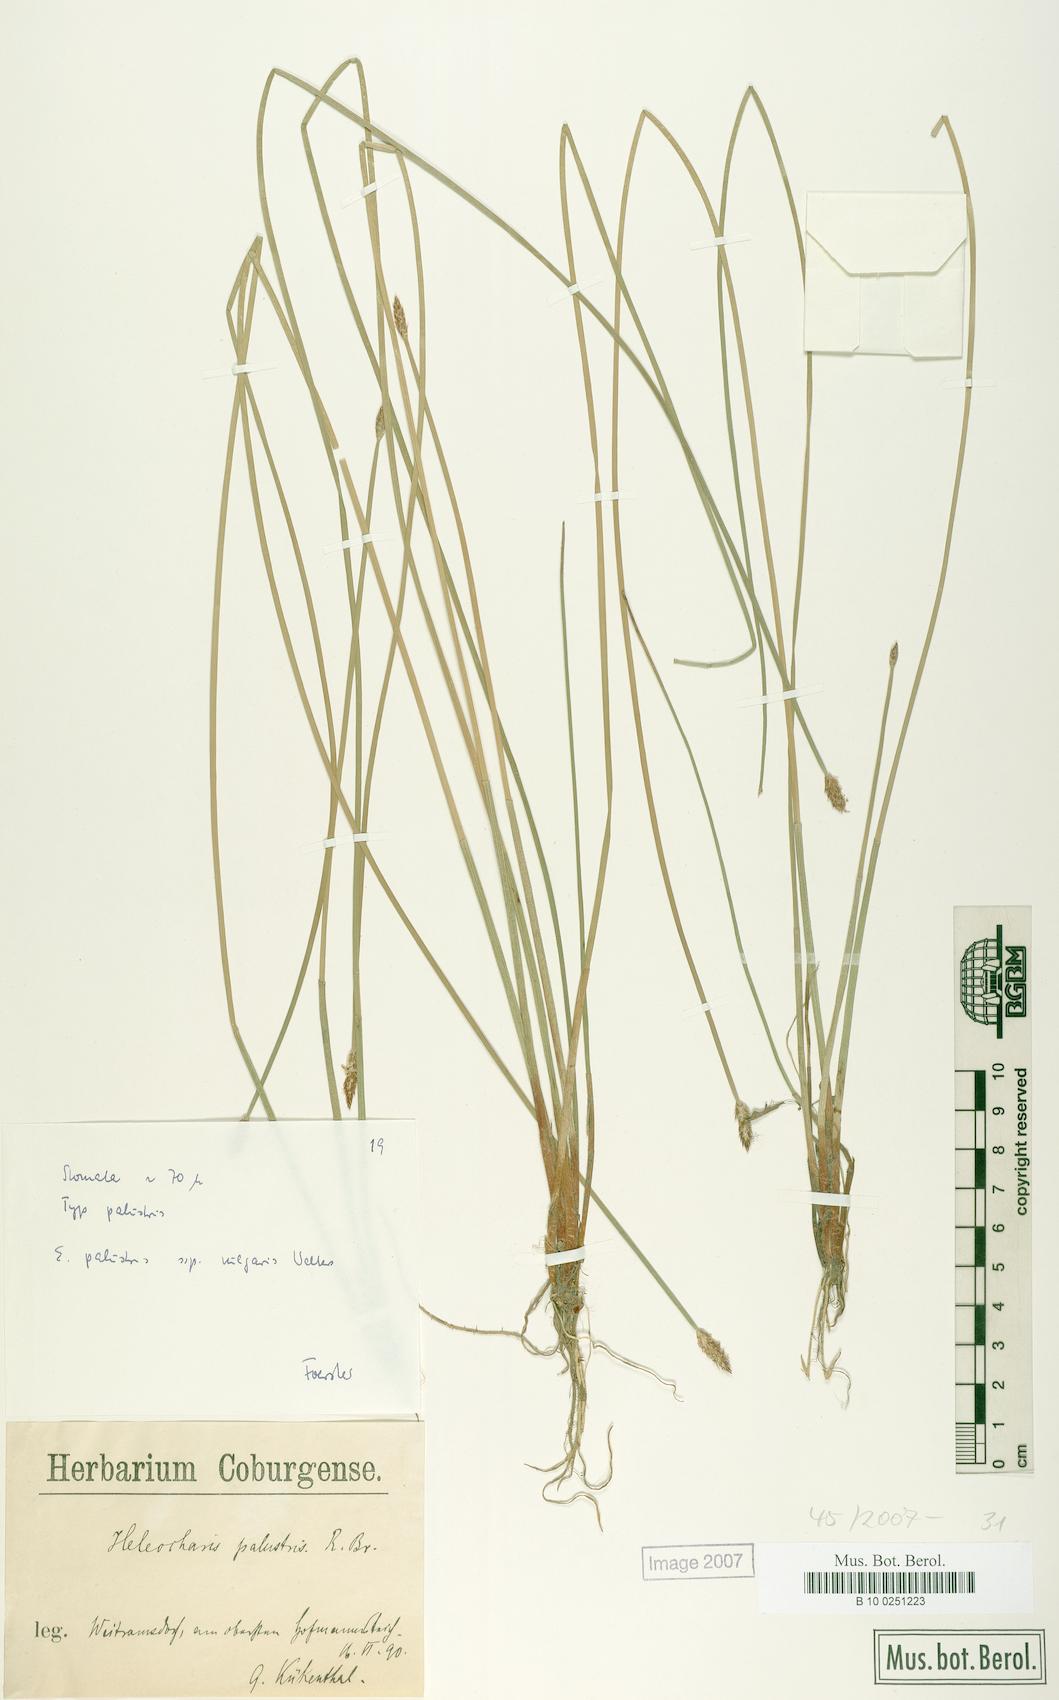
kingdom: Plantae
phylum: Tracheophyta
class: Liliopsida
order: Poales
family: Cyperaceae
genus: Eleocharis
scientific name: Eleocharis palustris
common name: Common spike-rush
